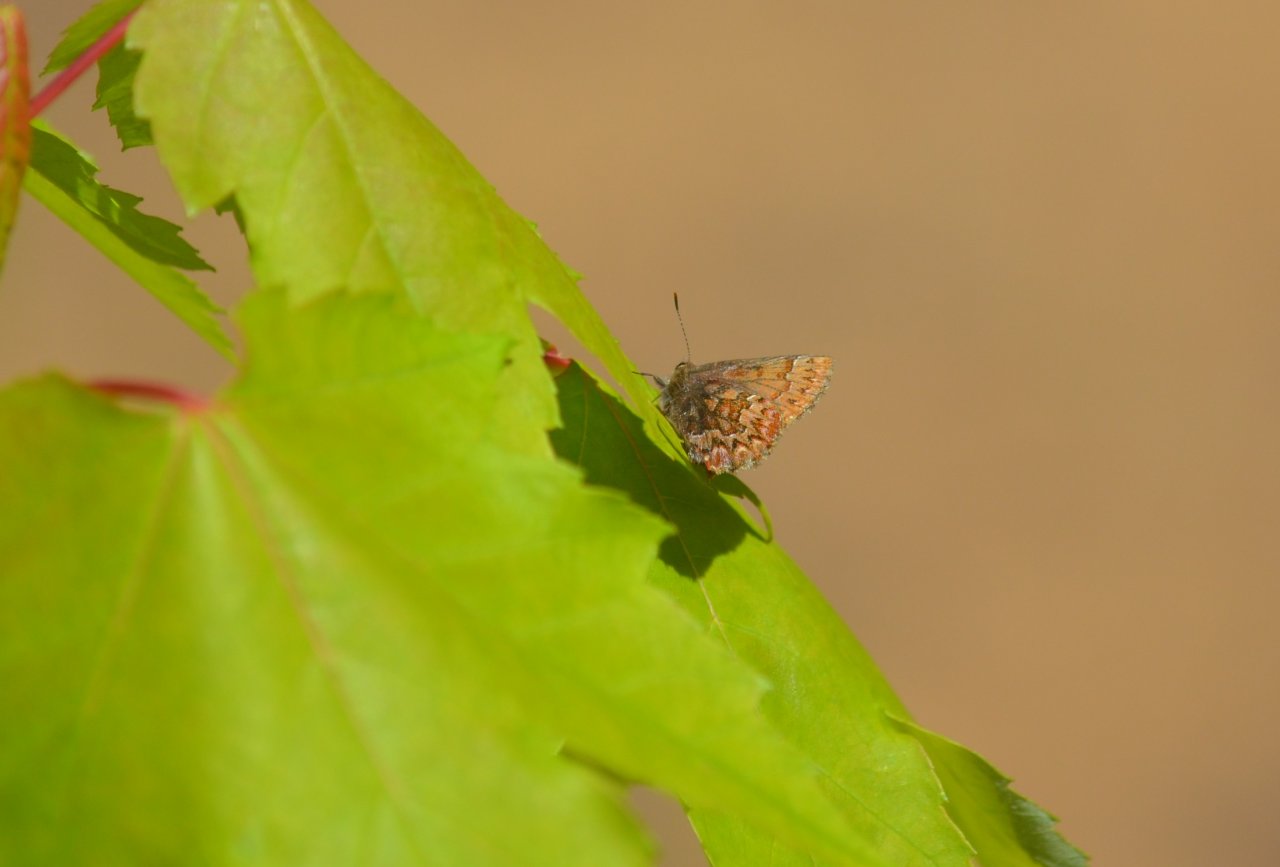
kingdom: Animalia
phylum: Arthropoda
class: Insecta
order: Lepidoptera
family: Lycaenidae
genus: Incisalia
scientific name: Incisalia eryphon
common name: Western Pine Elfin
